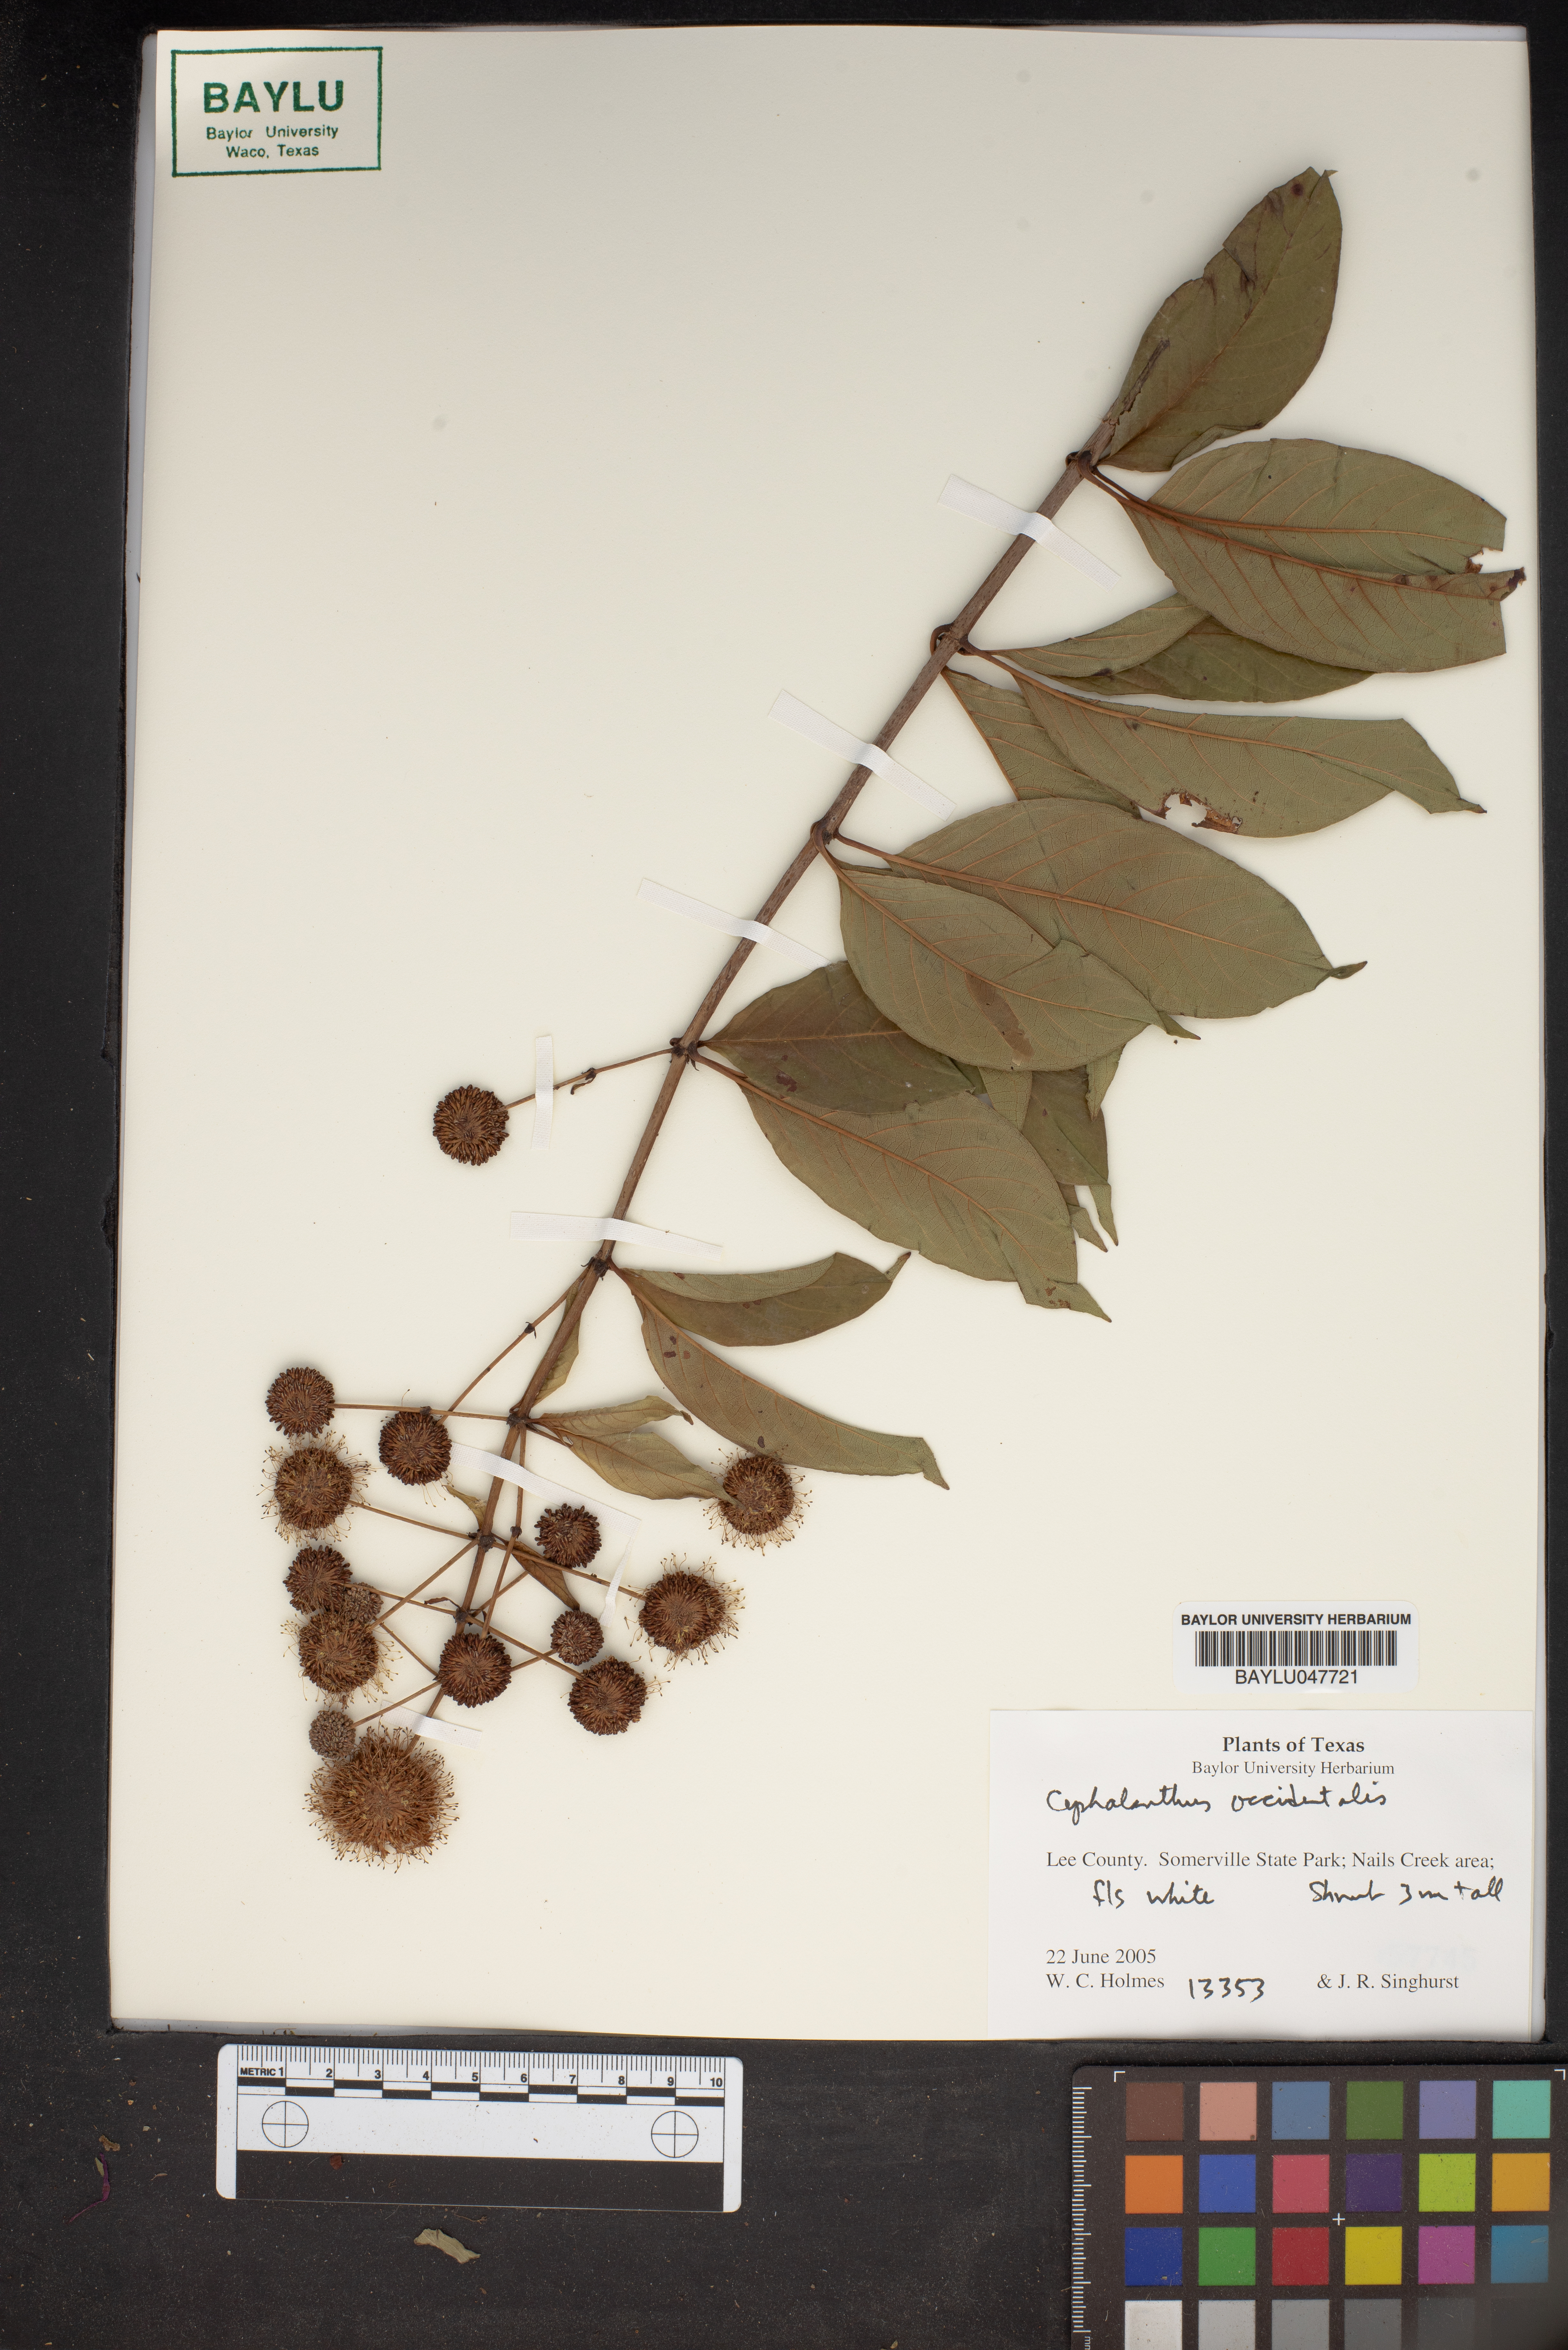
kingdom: Plantae
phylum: Tracheophyta
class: Magnoliopsida
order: Gentianales
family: Rubiaceae
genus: Cephalanthus
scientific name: Cephalanthus occidentalis
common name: Button-willow
